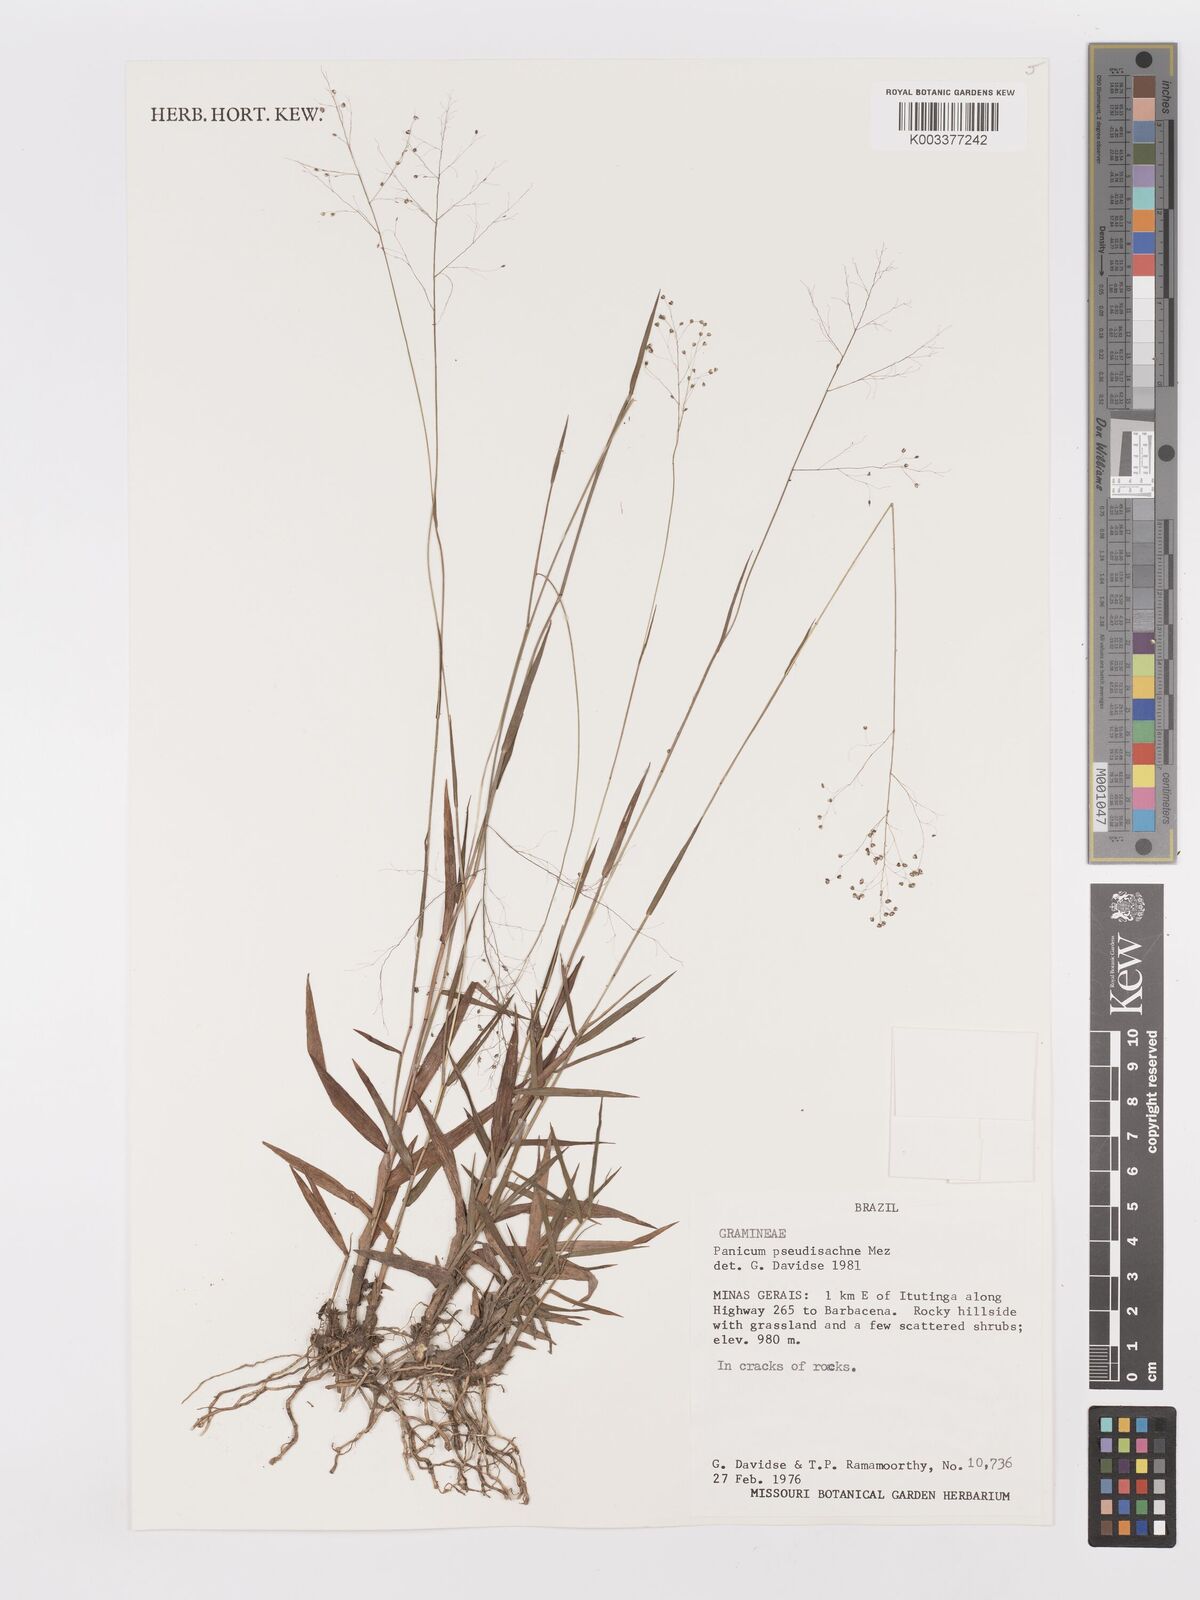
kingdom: Plantae
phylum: Tracheophyta
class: Liliopsida
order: Poales
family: Poaceae
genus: Trichanthecium
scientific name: Trichanthecium pseudisachne
